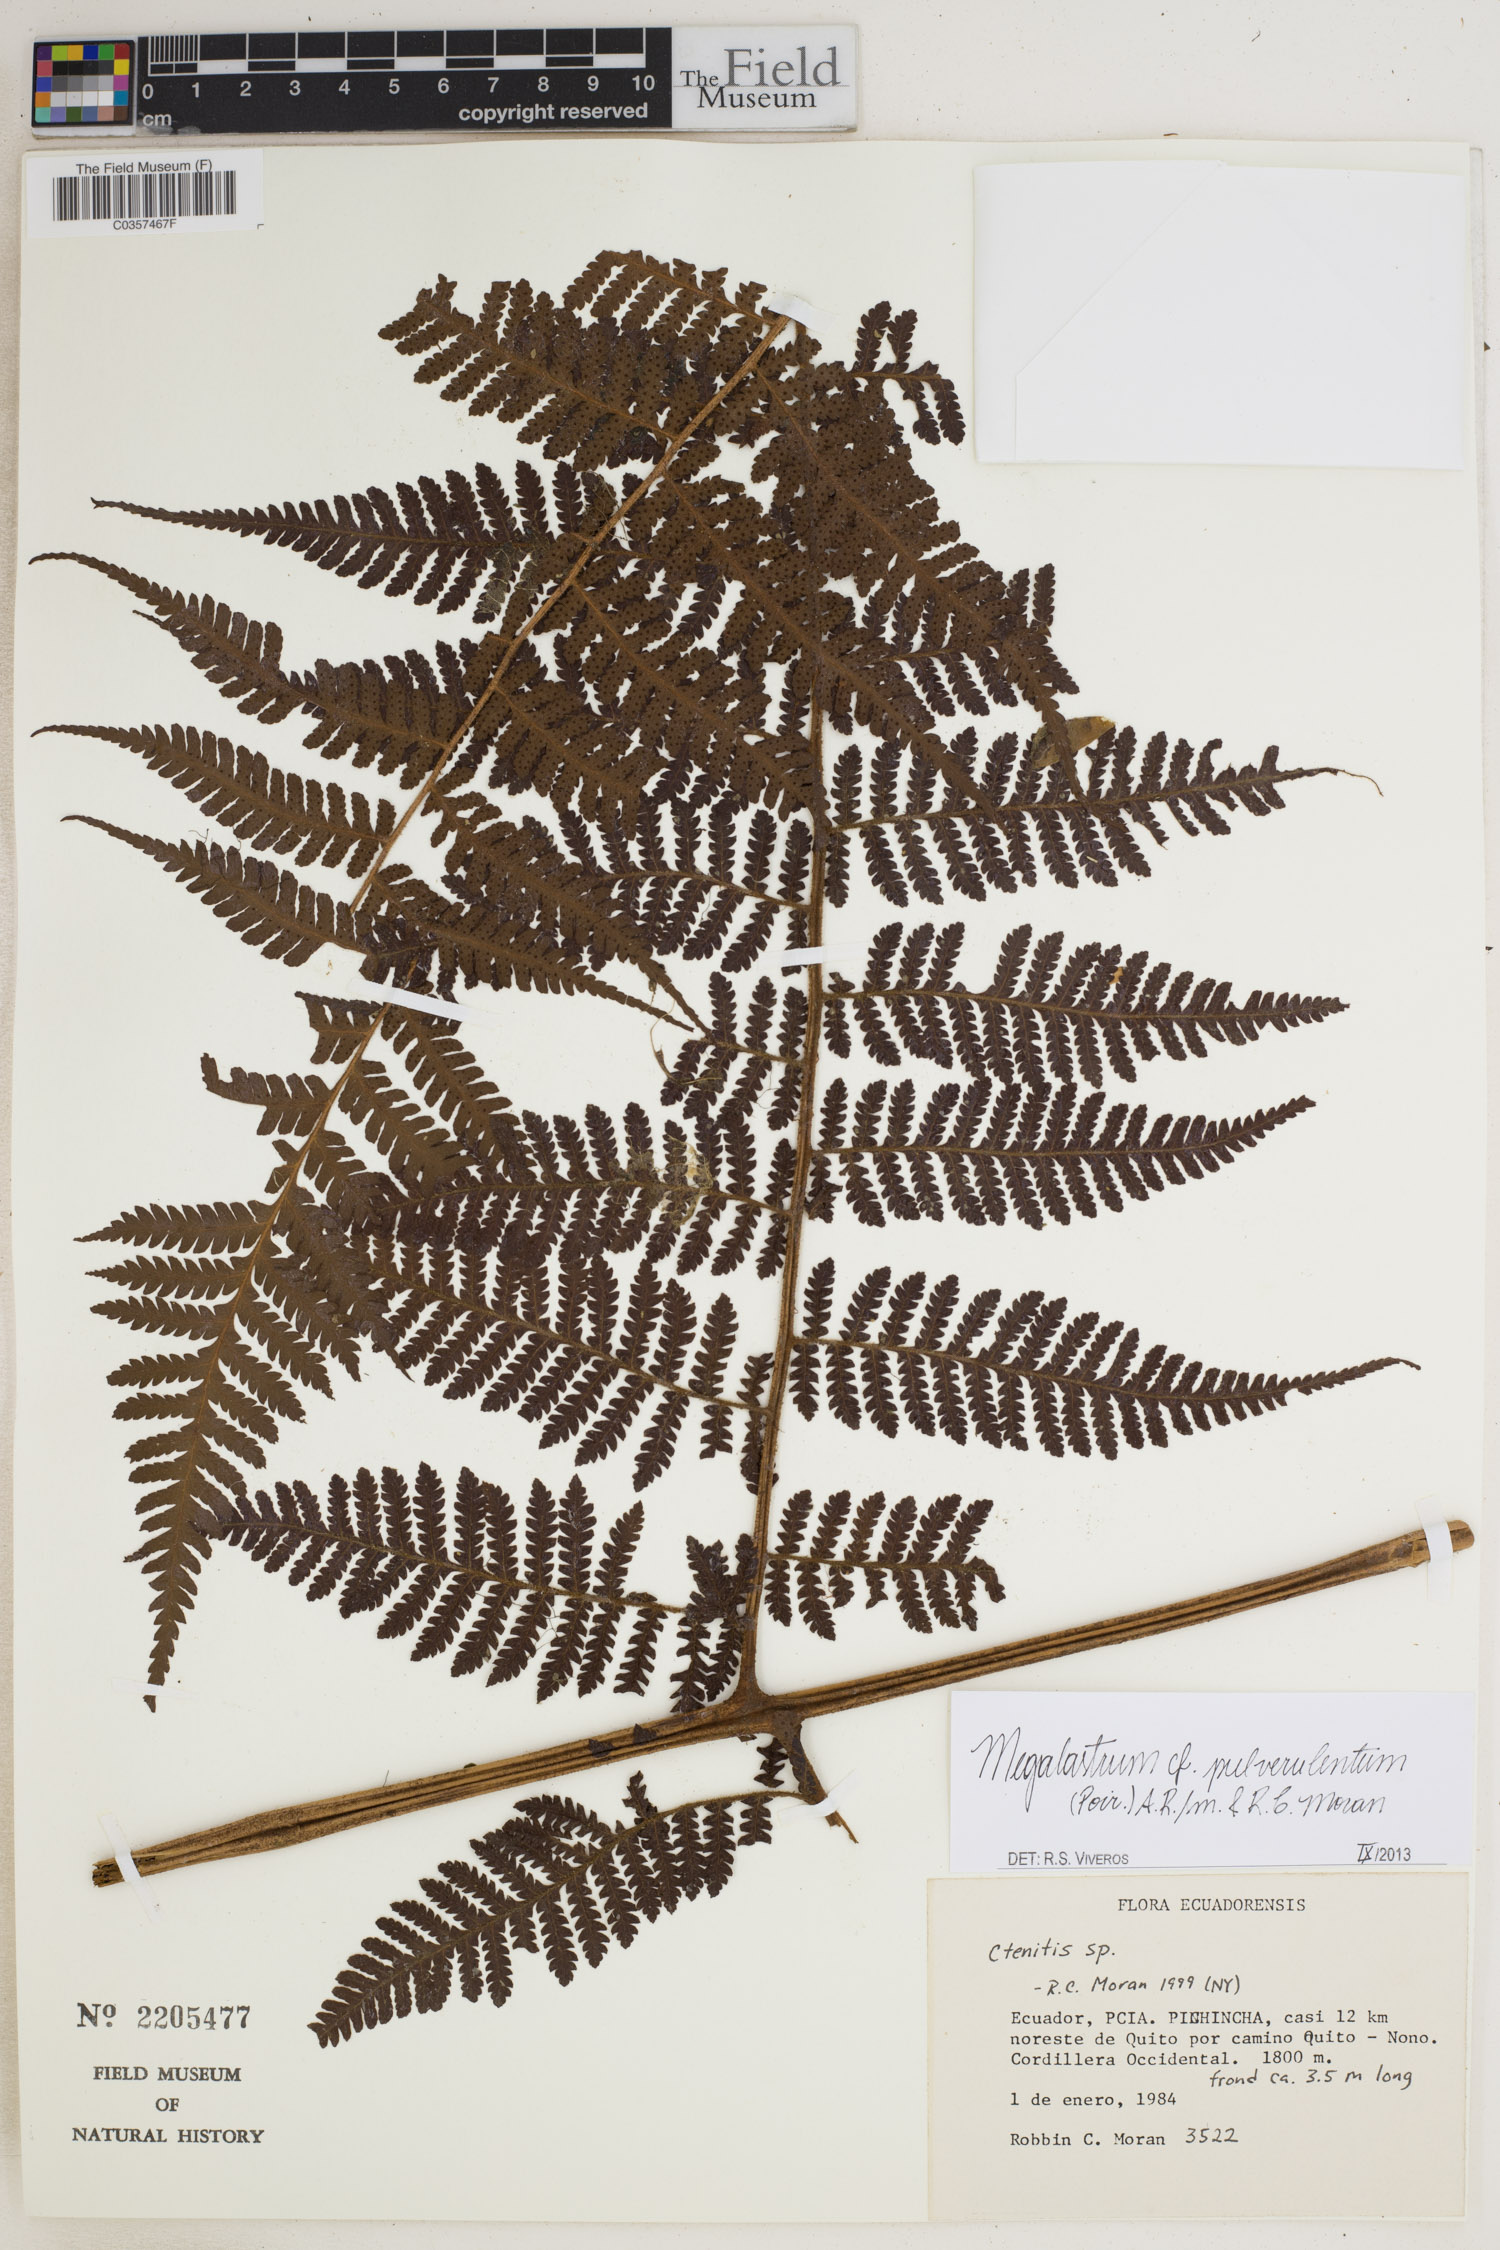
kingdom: Plantae
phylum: Tracheophyta
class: Polypodiopsida
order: Polypodiales
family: Dryopteridaceae
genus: Megalastrum
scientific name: Megalastrum pulverulentum
